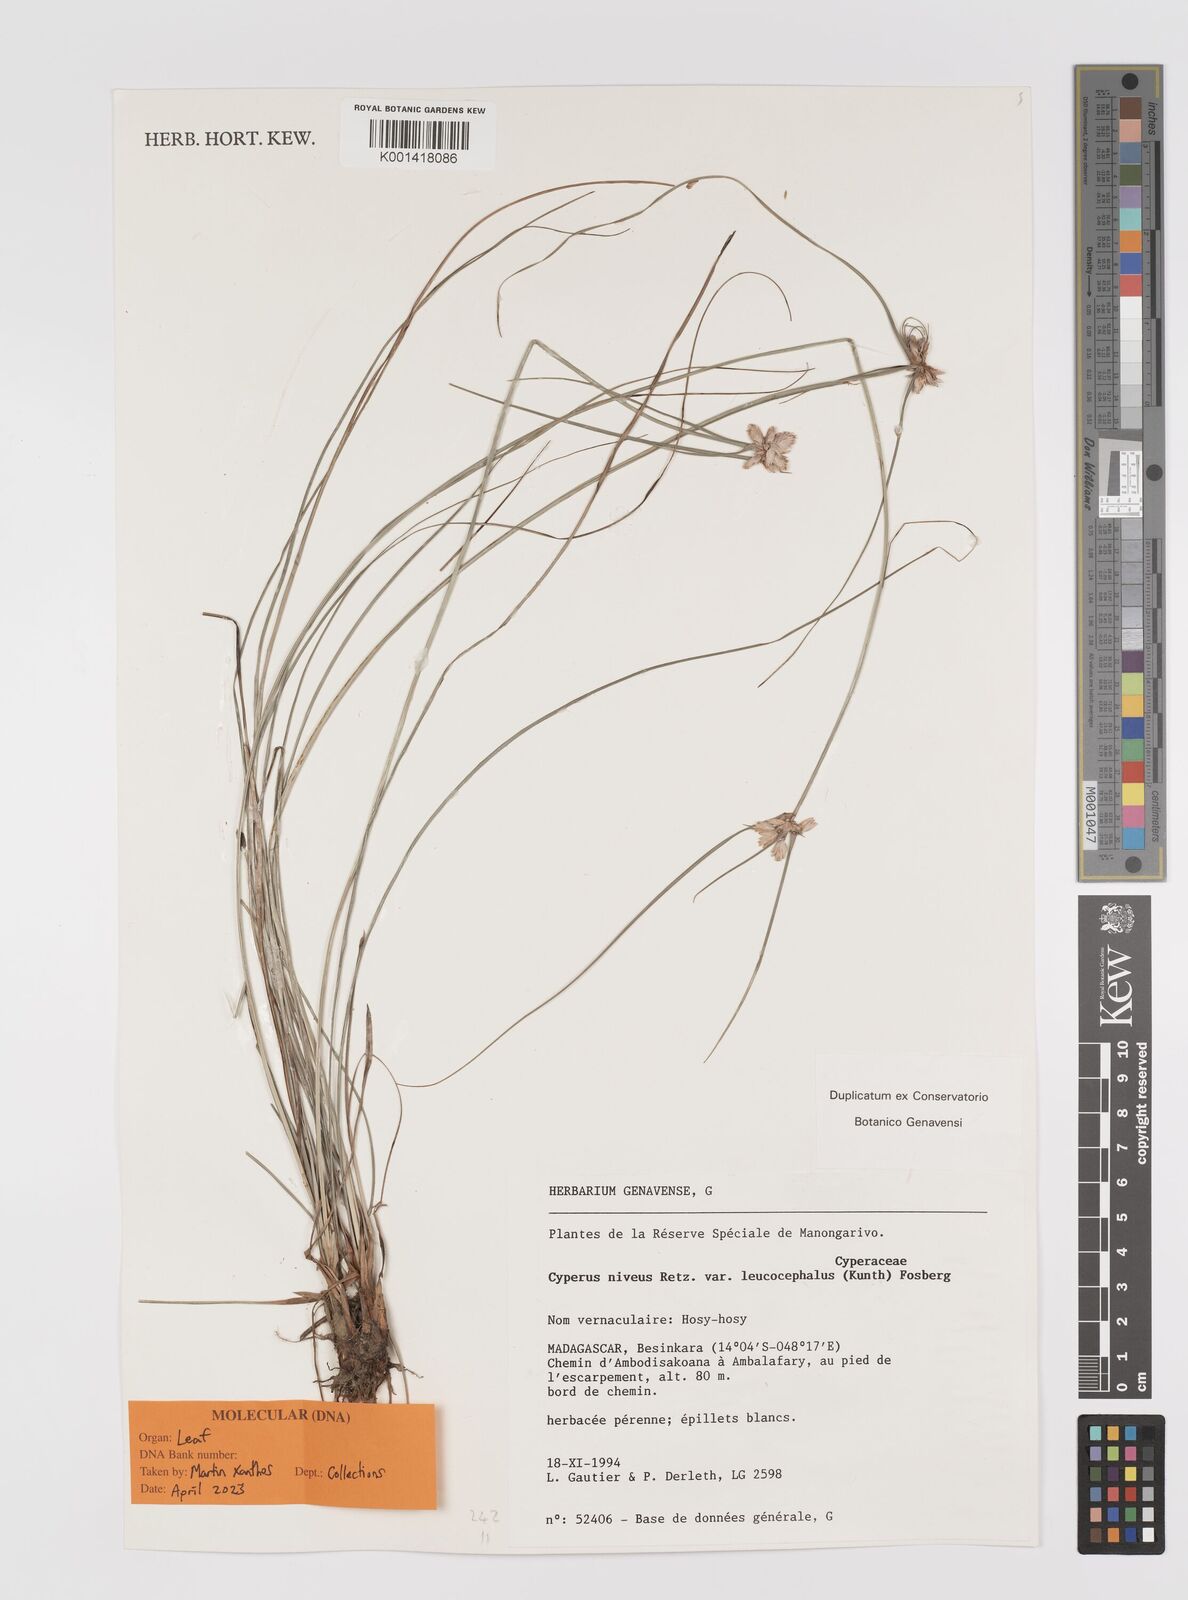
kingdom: Plantae
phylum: Tracheophyta
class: Liliopsida
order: Poales
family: Cyperaceae
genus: Cyperus
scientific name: Cyperus niveus
